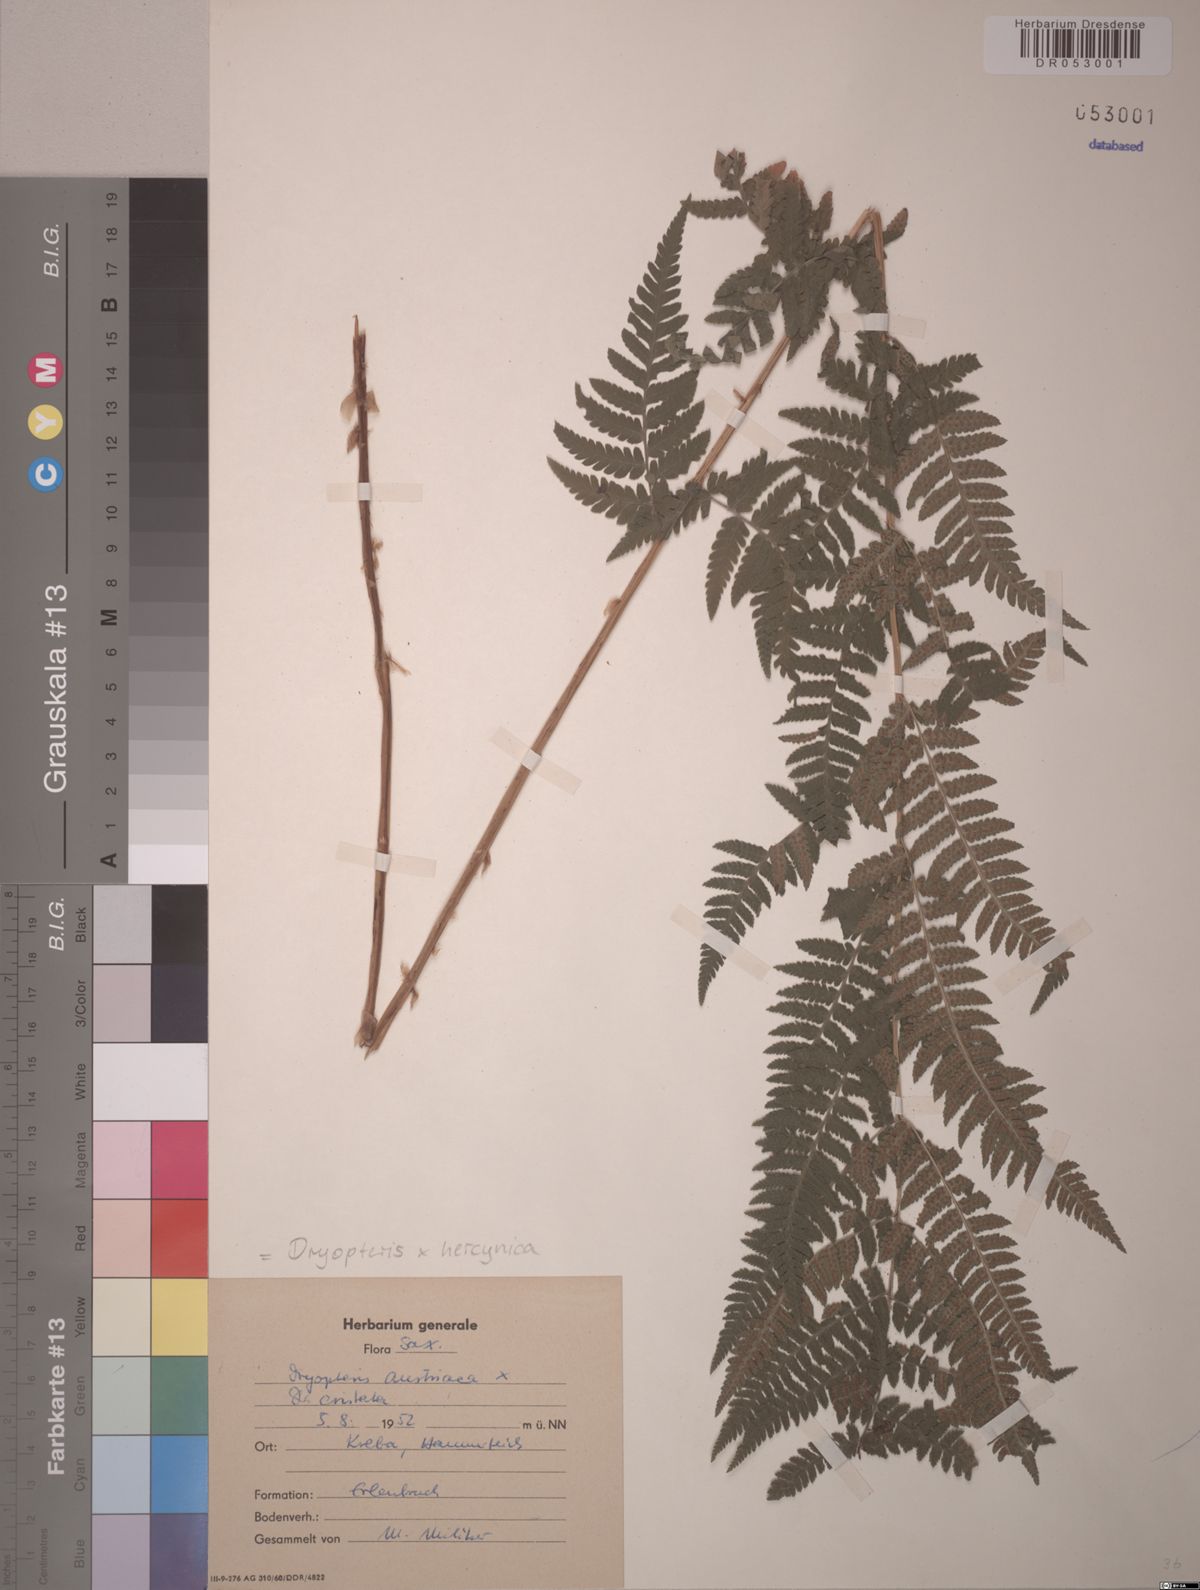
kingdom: Plantae
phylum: Tracheophyta
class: Polypodiopsida
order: Polypodiales
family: Dryopteridaceae
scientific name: Dryopteridaceae
